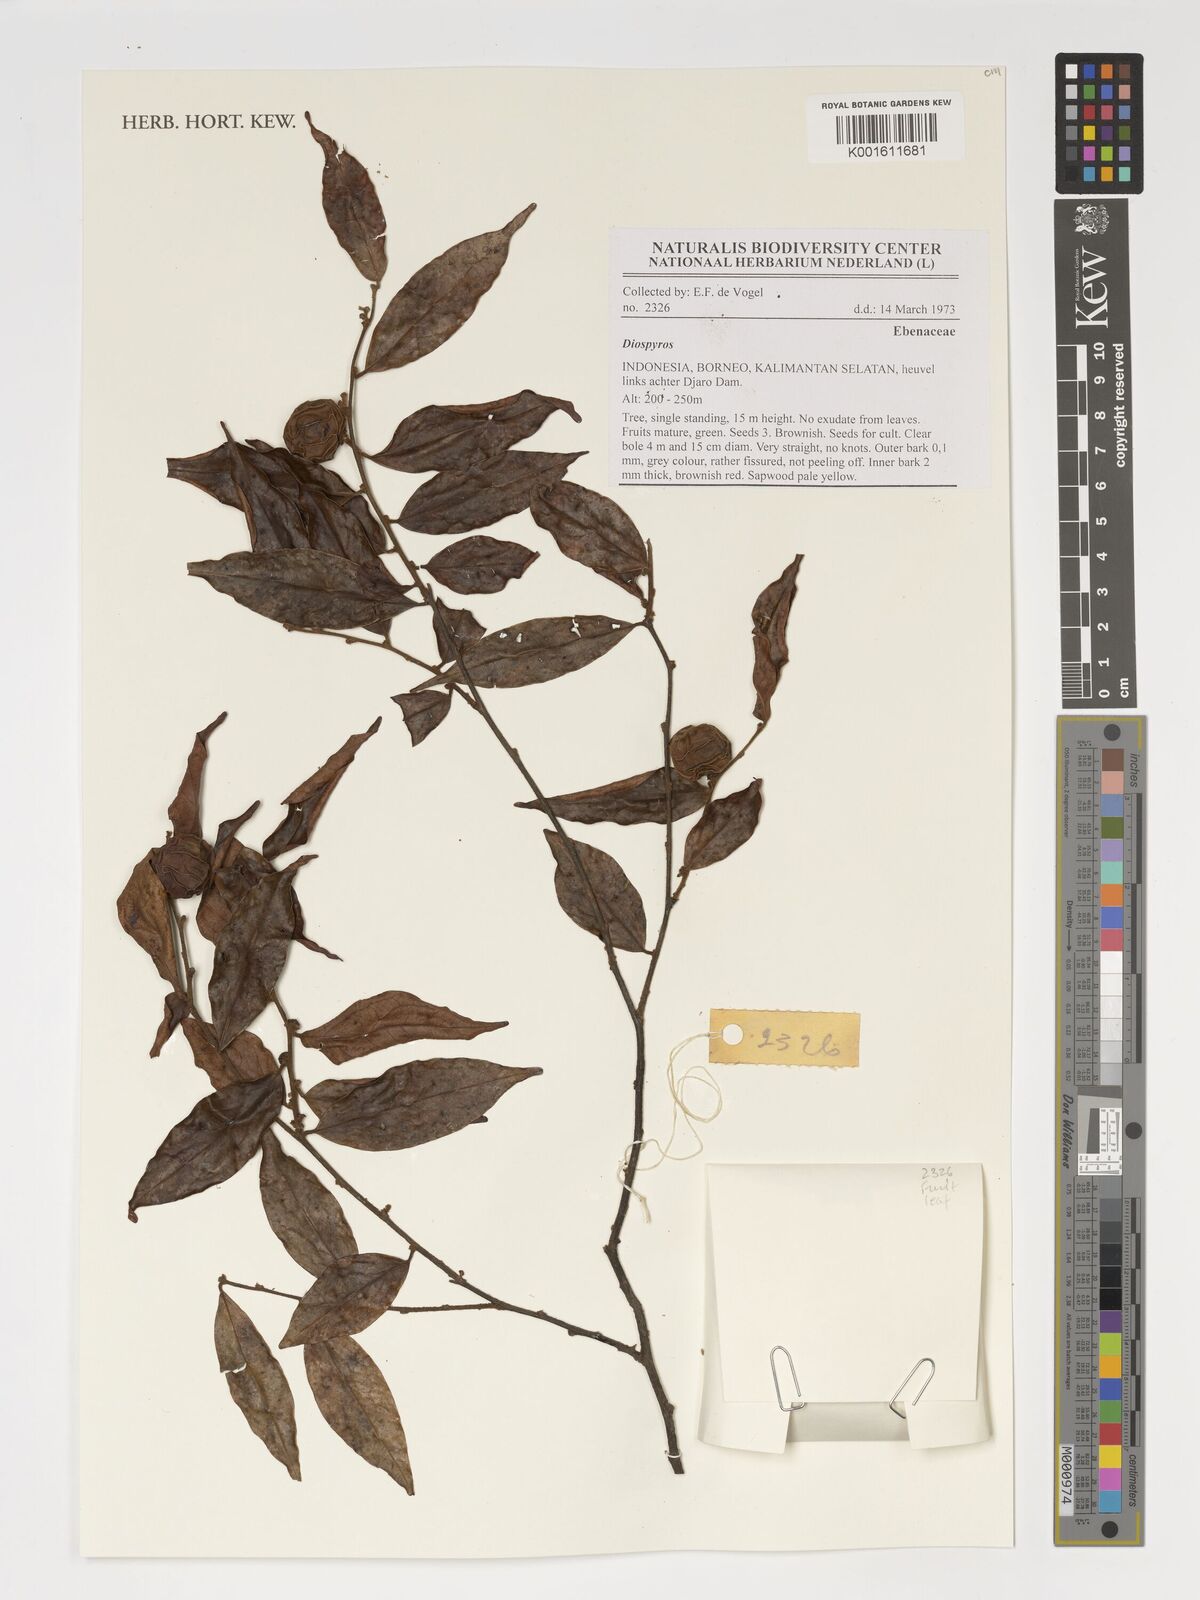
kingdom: Plantae
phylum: Tracheophyta
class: Magnoliopsida
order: Ericales
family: Ebenaceae
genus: Diospyros
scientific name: Diospyros
